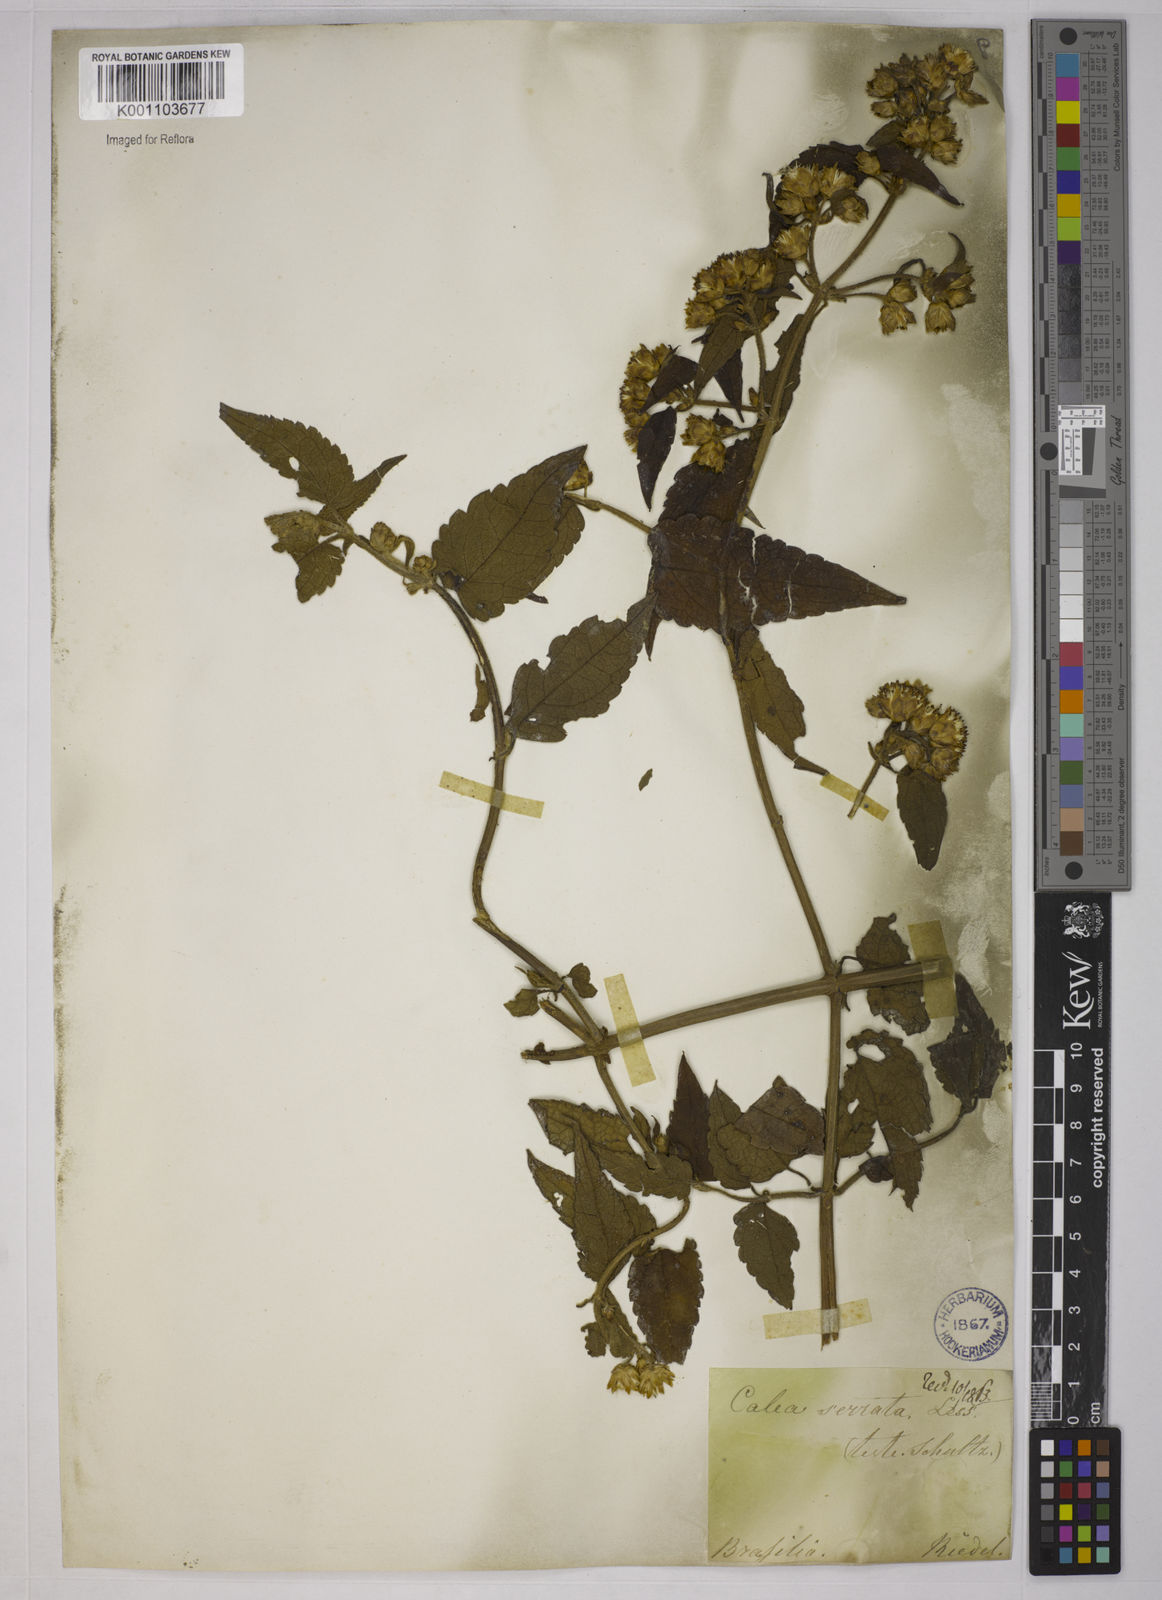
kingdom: Plantae
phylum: Tracheophyta
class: Magnoliopsida
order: Asterales
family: Asteraceae
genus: Calea
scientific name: Calea serrata
